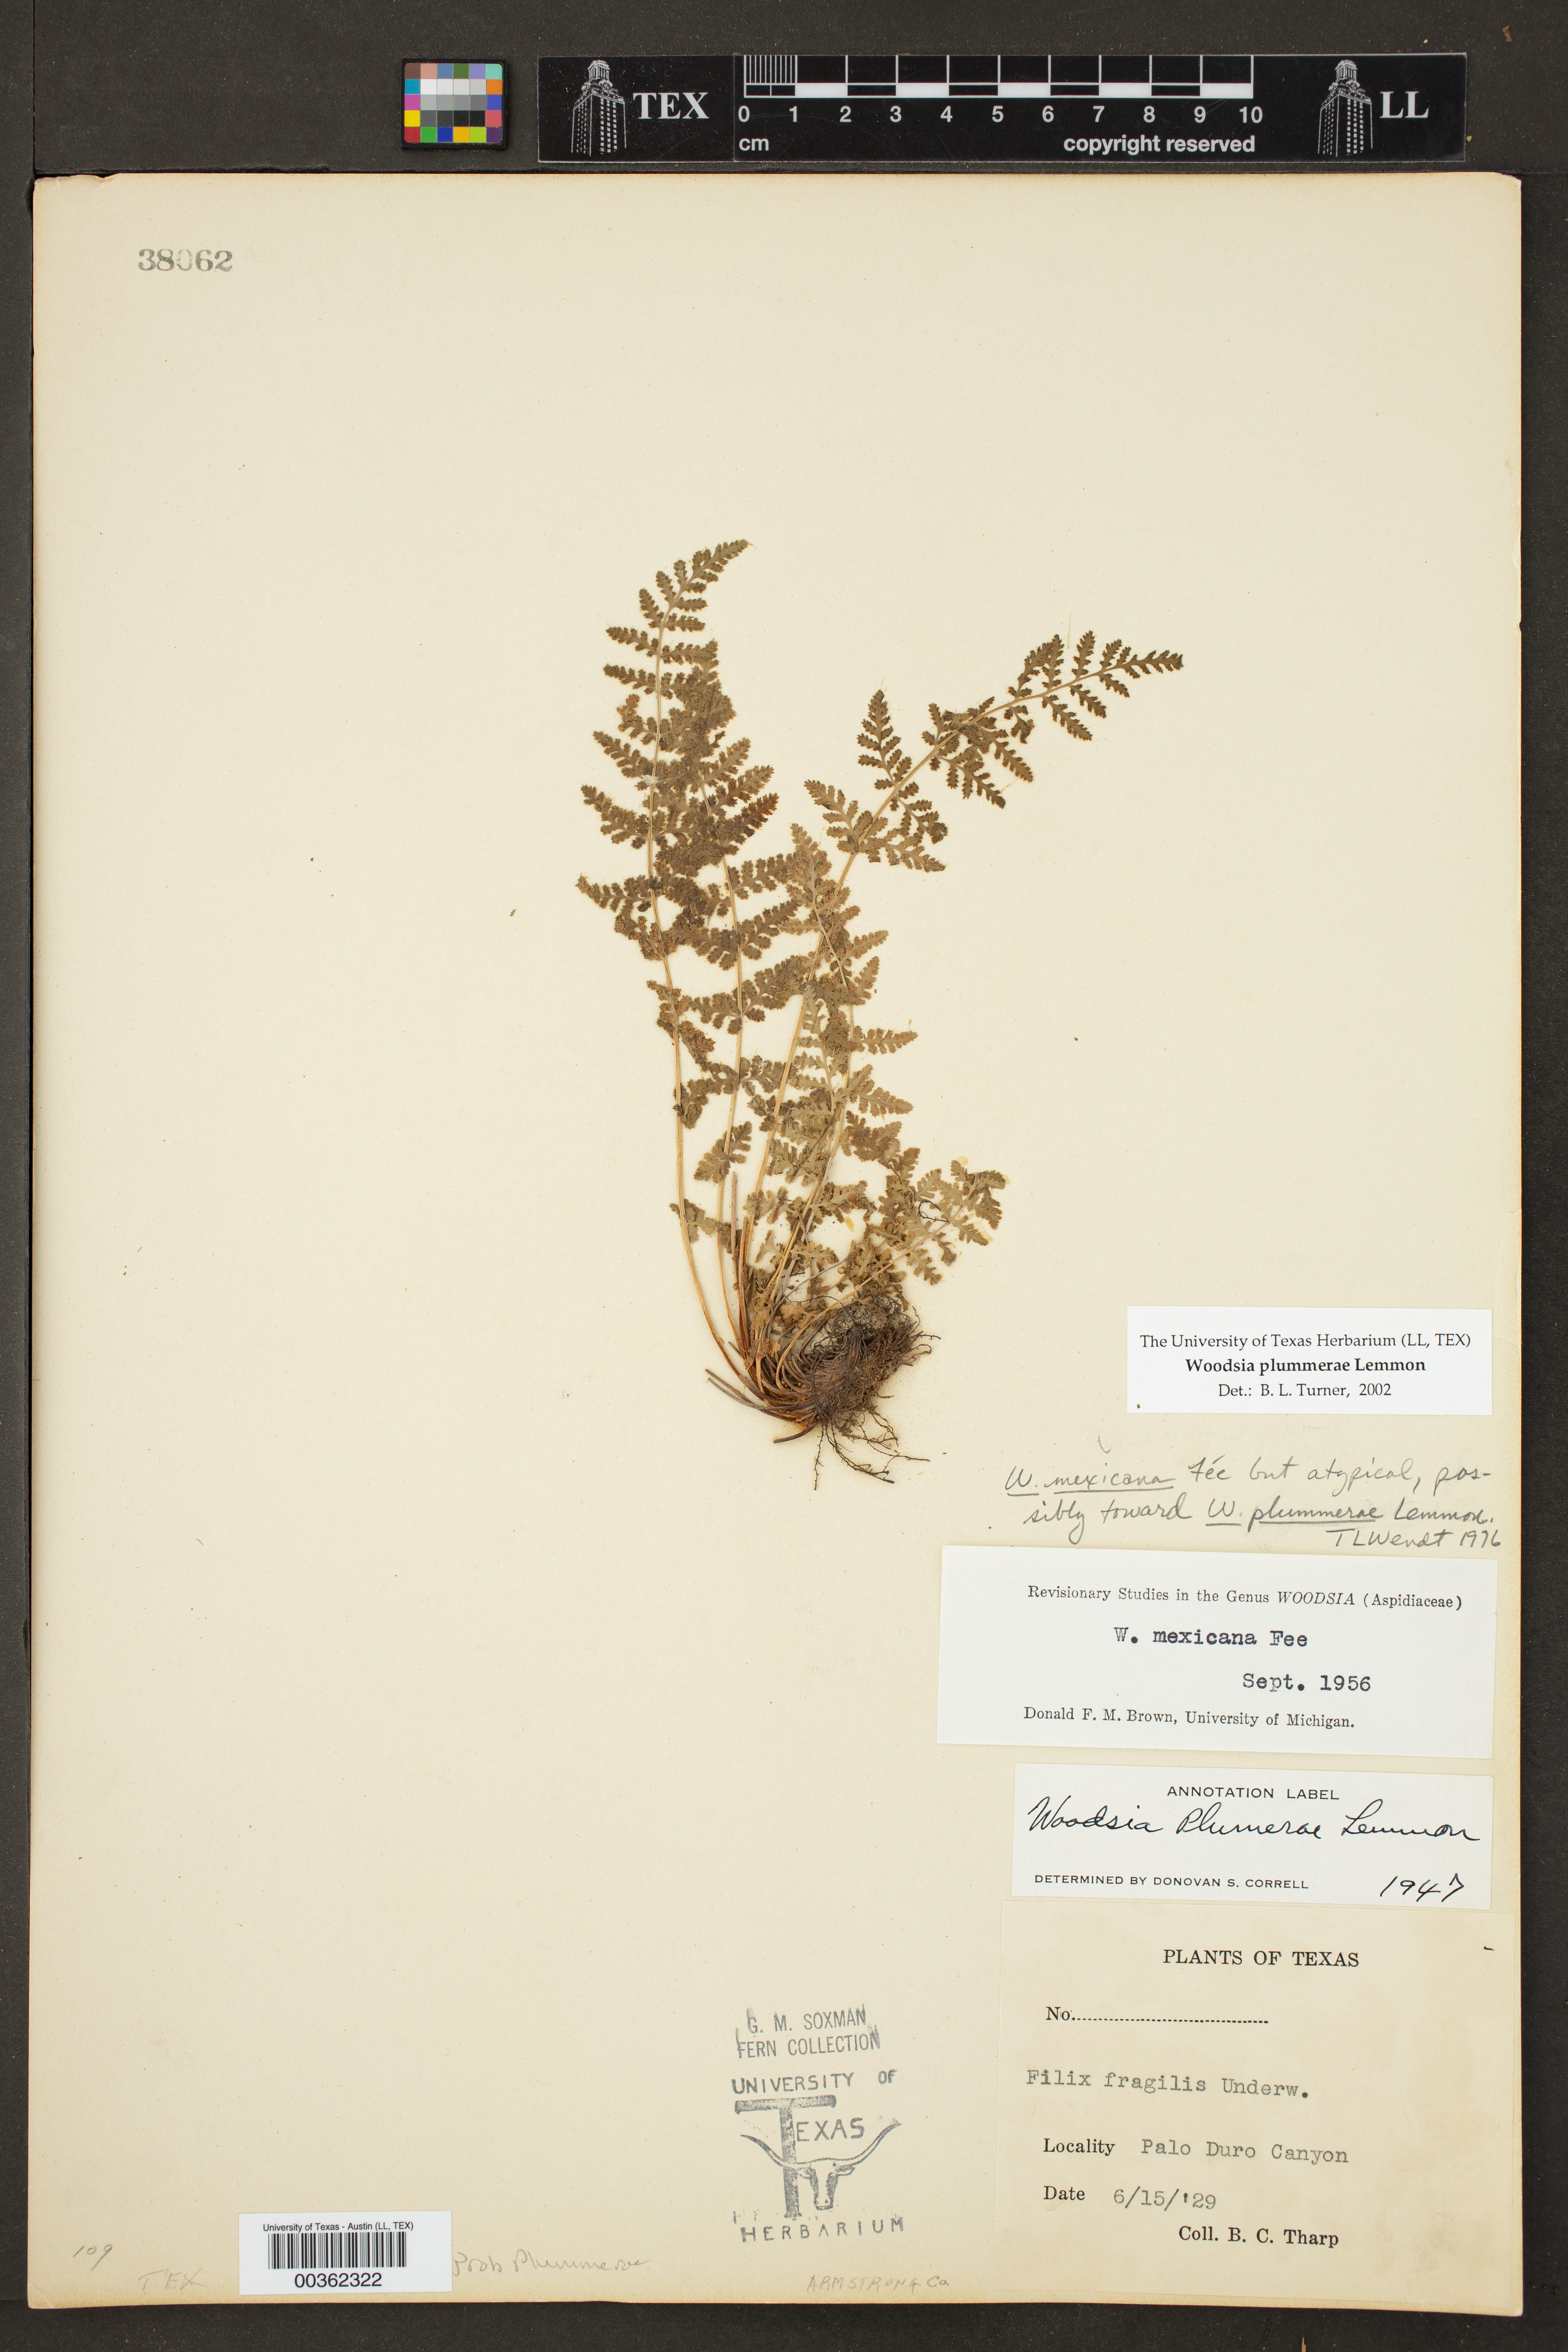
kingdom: Plantae
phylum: Tracheophyta
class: Polypodiopsida
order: Polypodiales
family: Woodsiaceae
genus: Physematium
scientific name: Physematium plummerae
